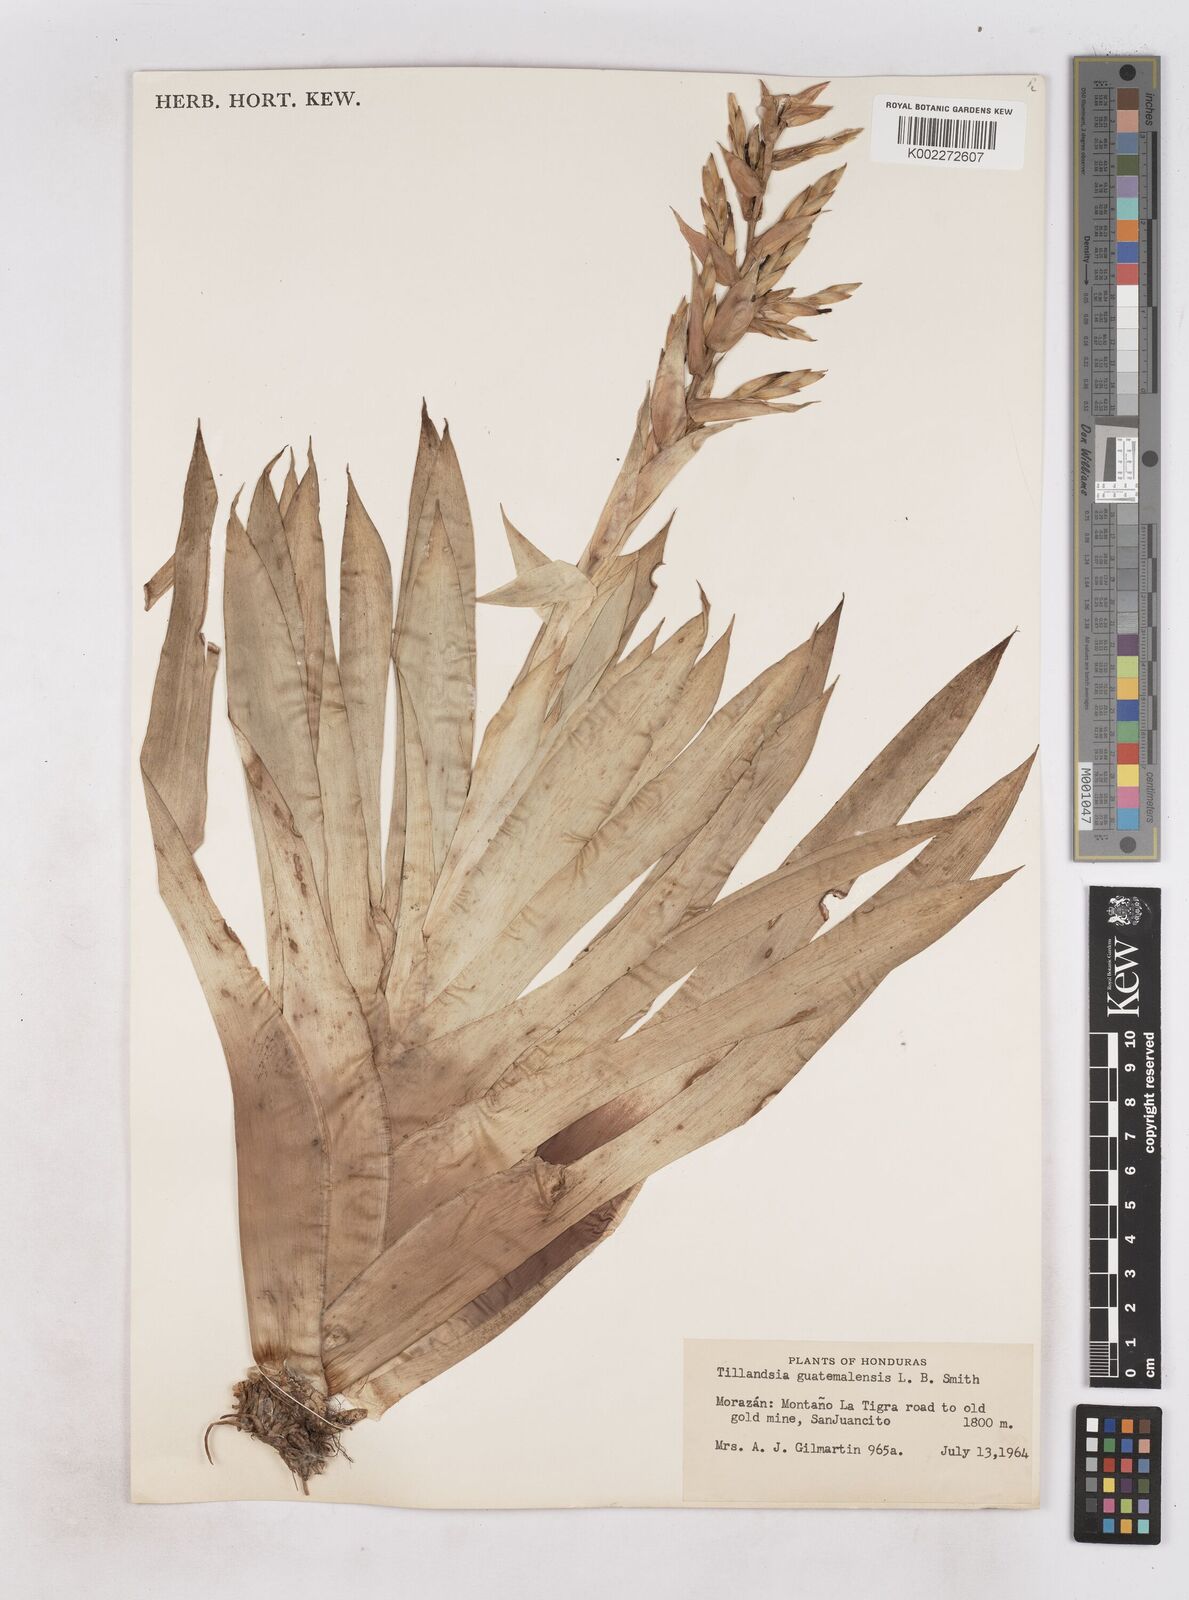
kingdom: Plantae
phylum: Tracheophyta
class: Liliopsida
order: Poales
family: Bromeliaceae
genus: Tillandsia
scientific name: Tillandsia guatemalensis
